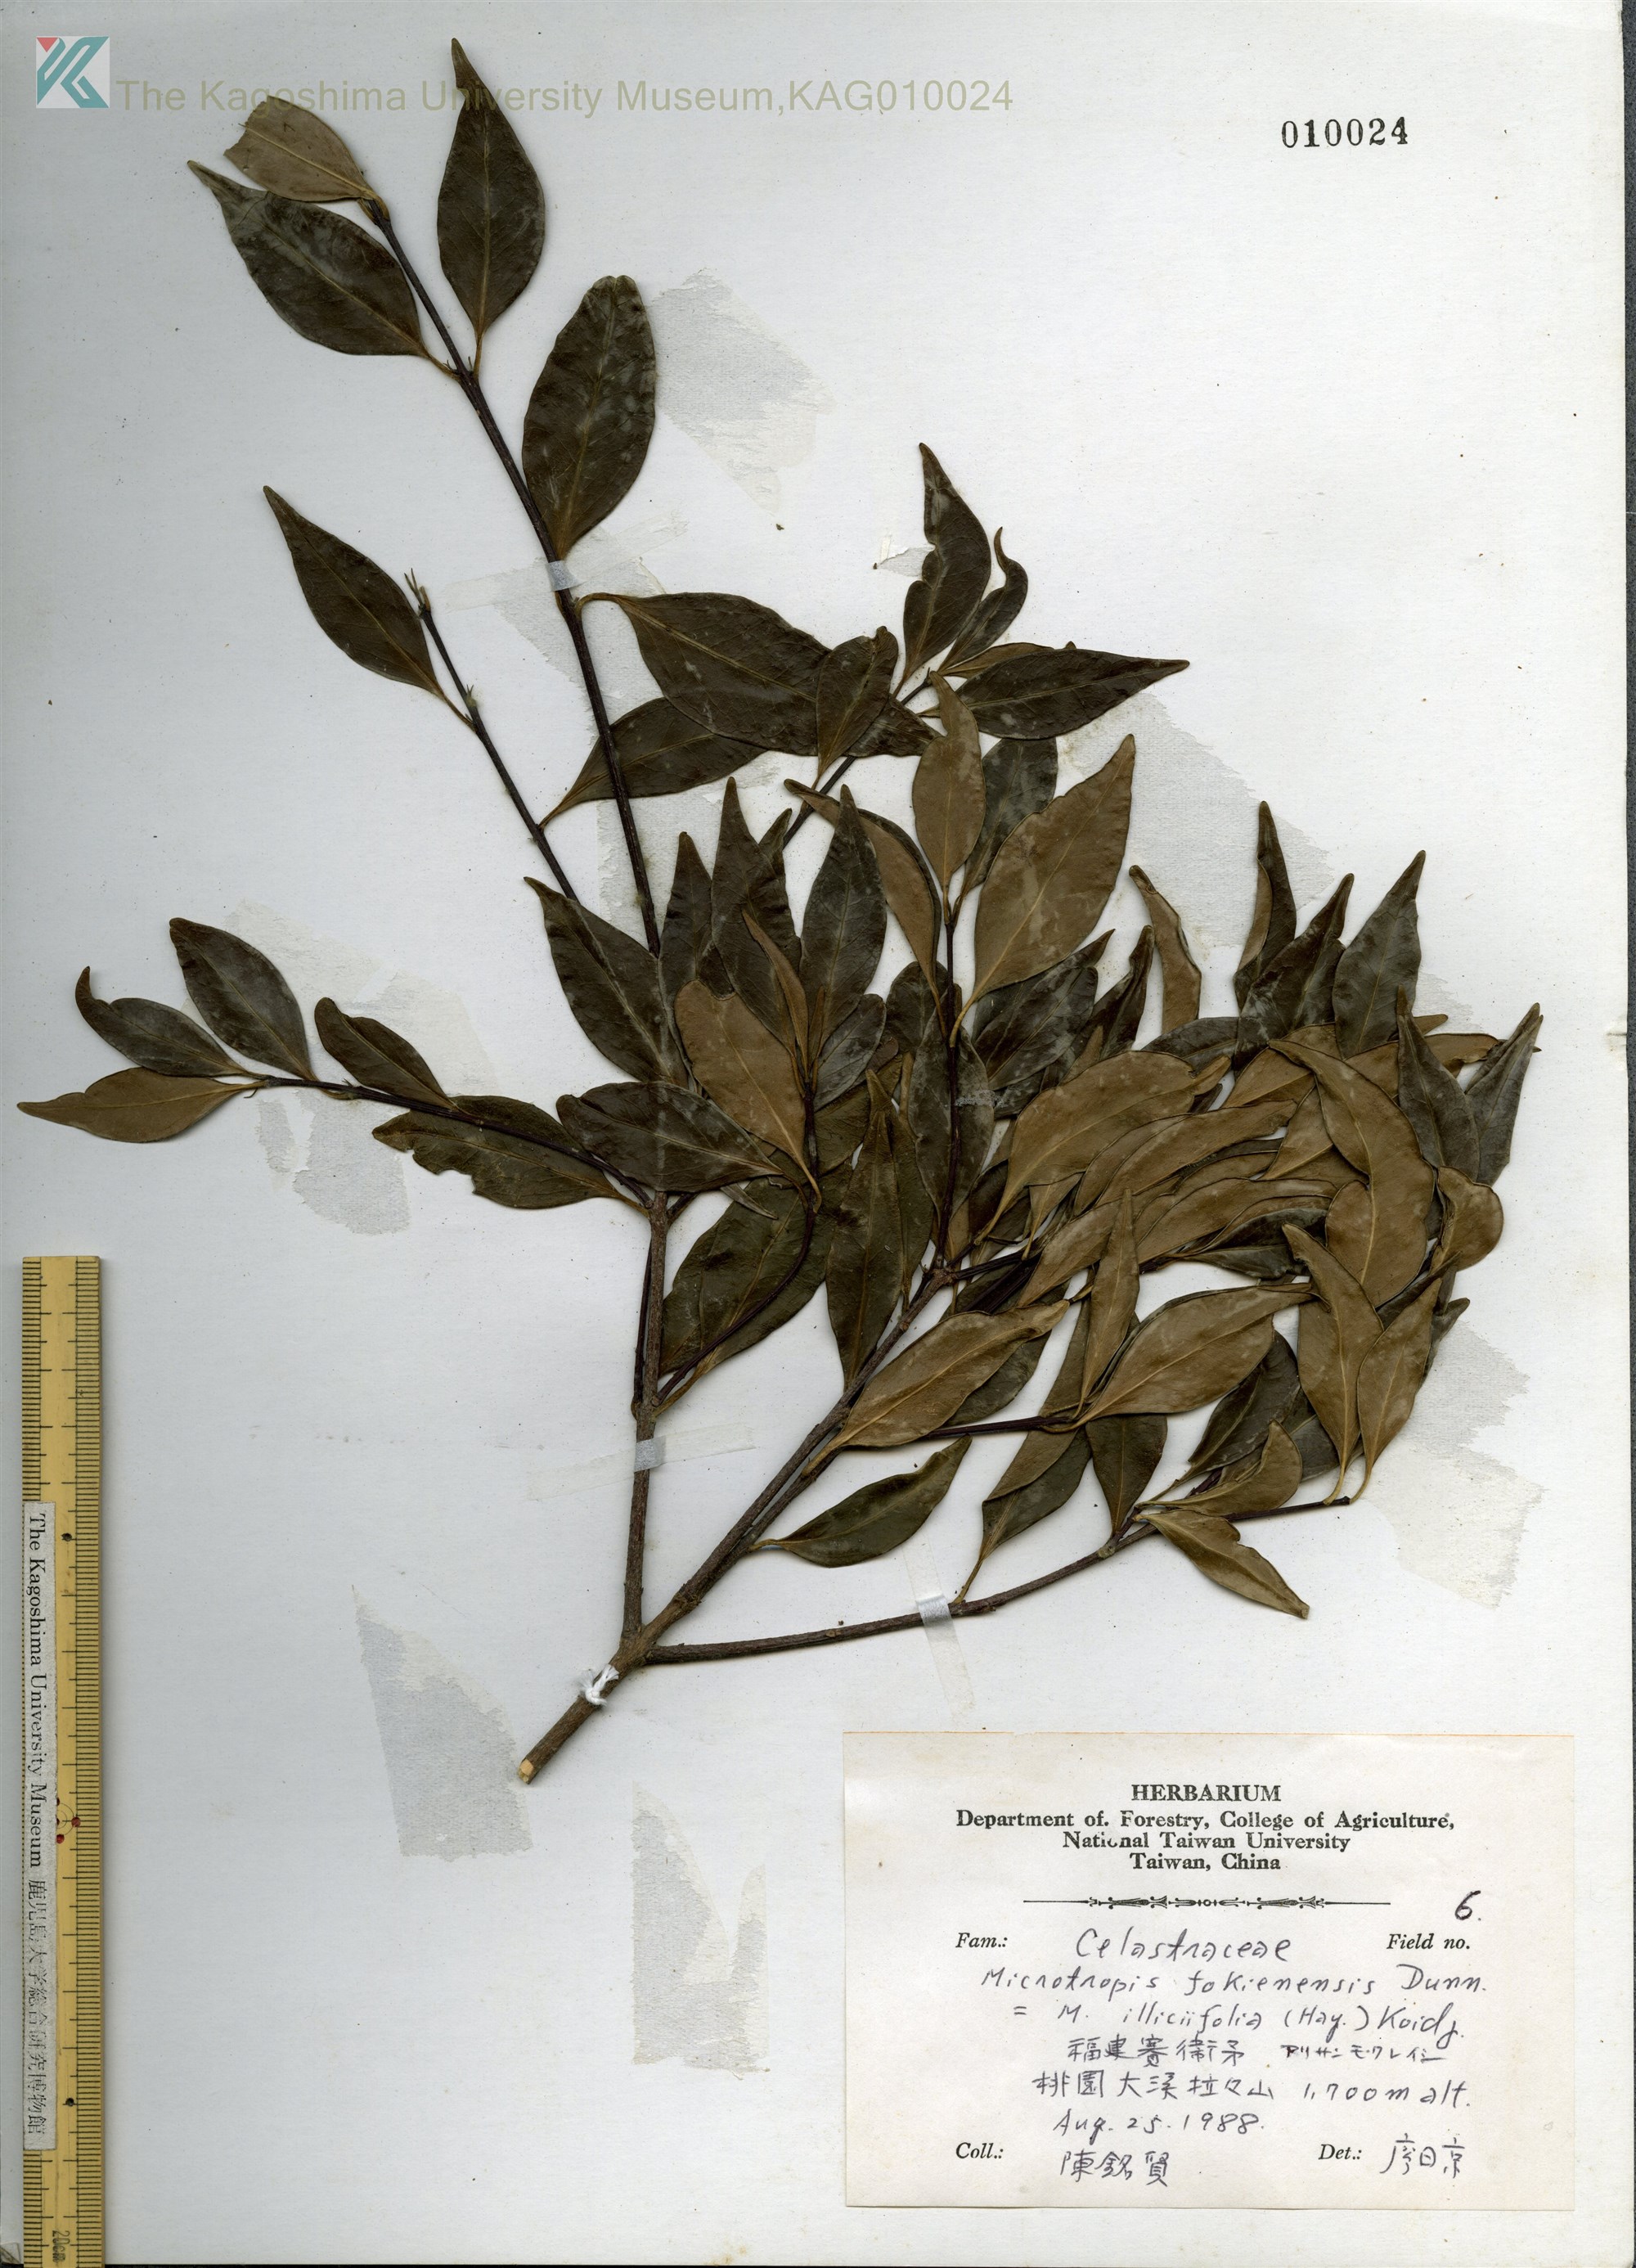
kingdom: Plantae
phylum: Tracheophyta
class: Magnoliopsida
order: Celastrales
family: Celastraceae
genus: Maytenus
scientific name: Maytenus
